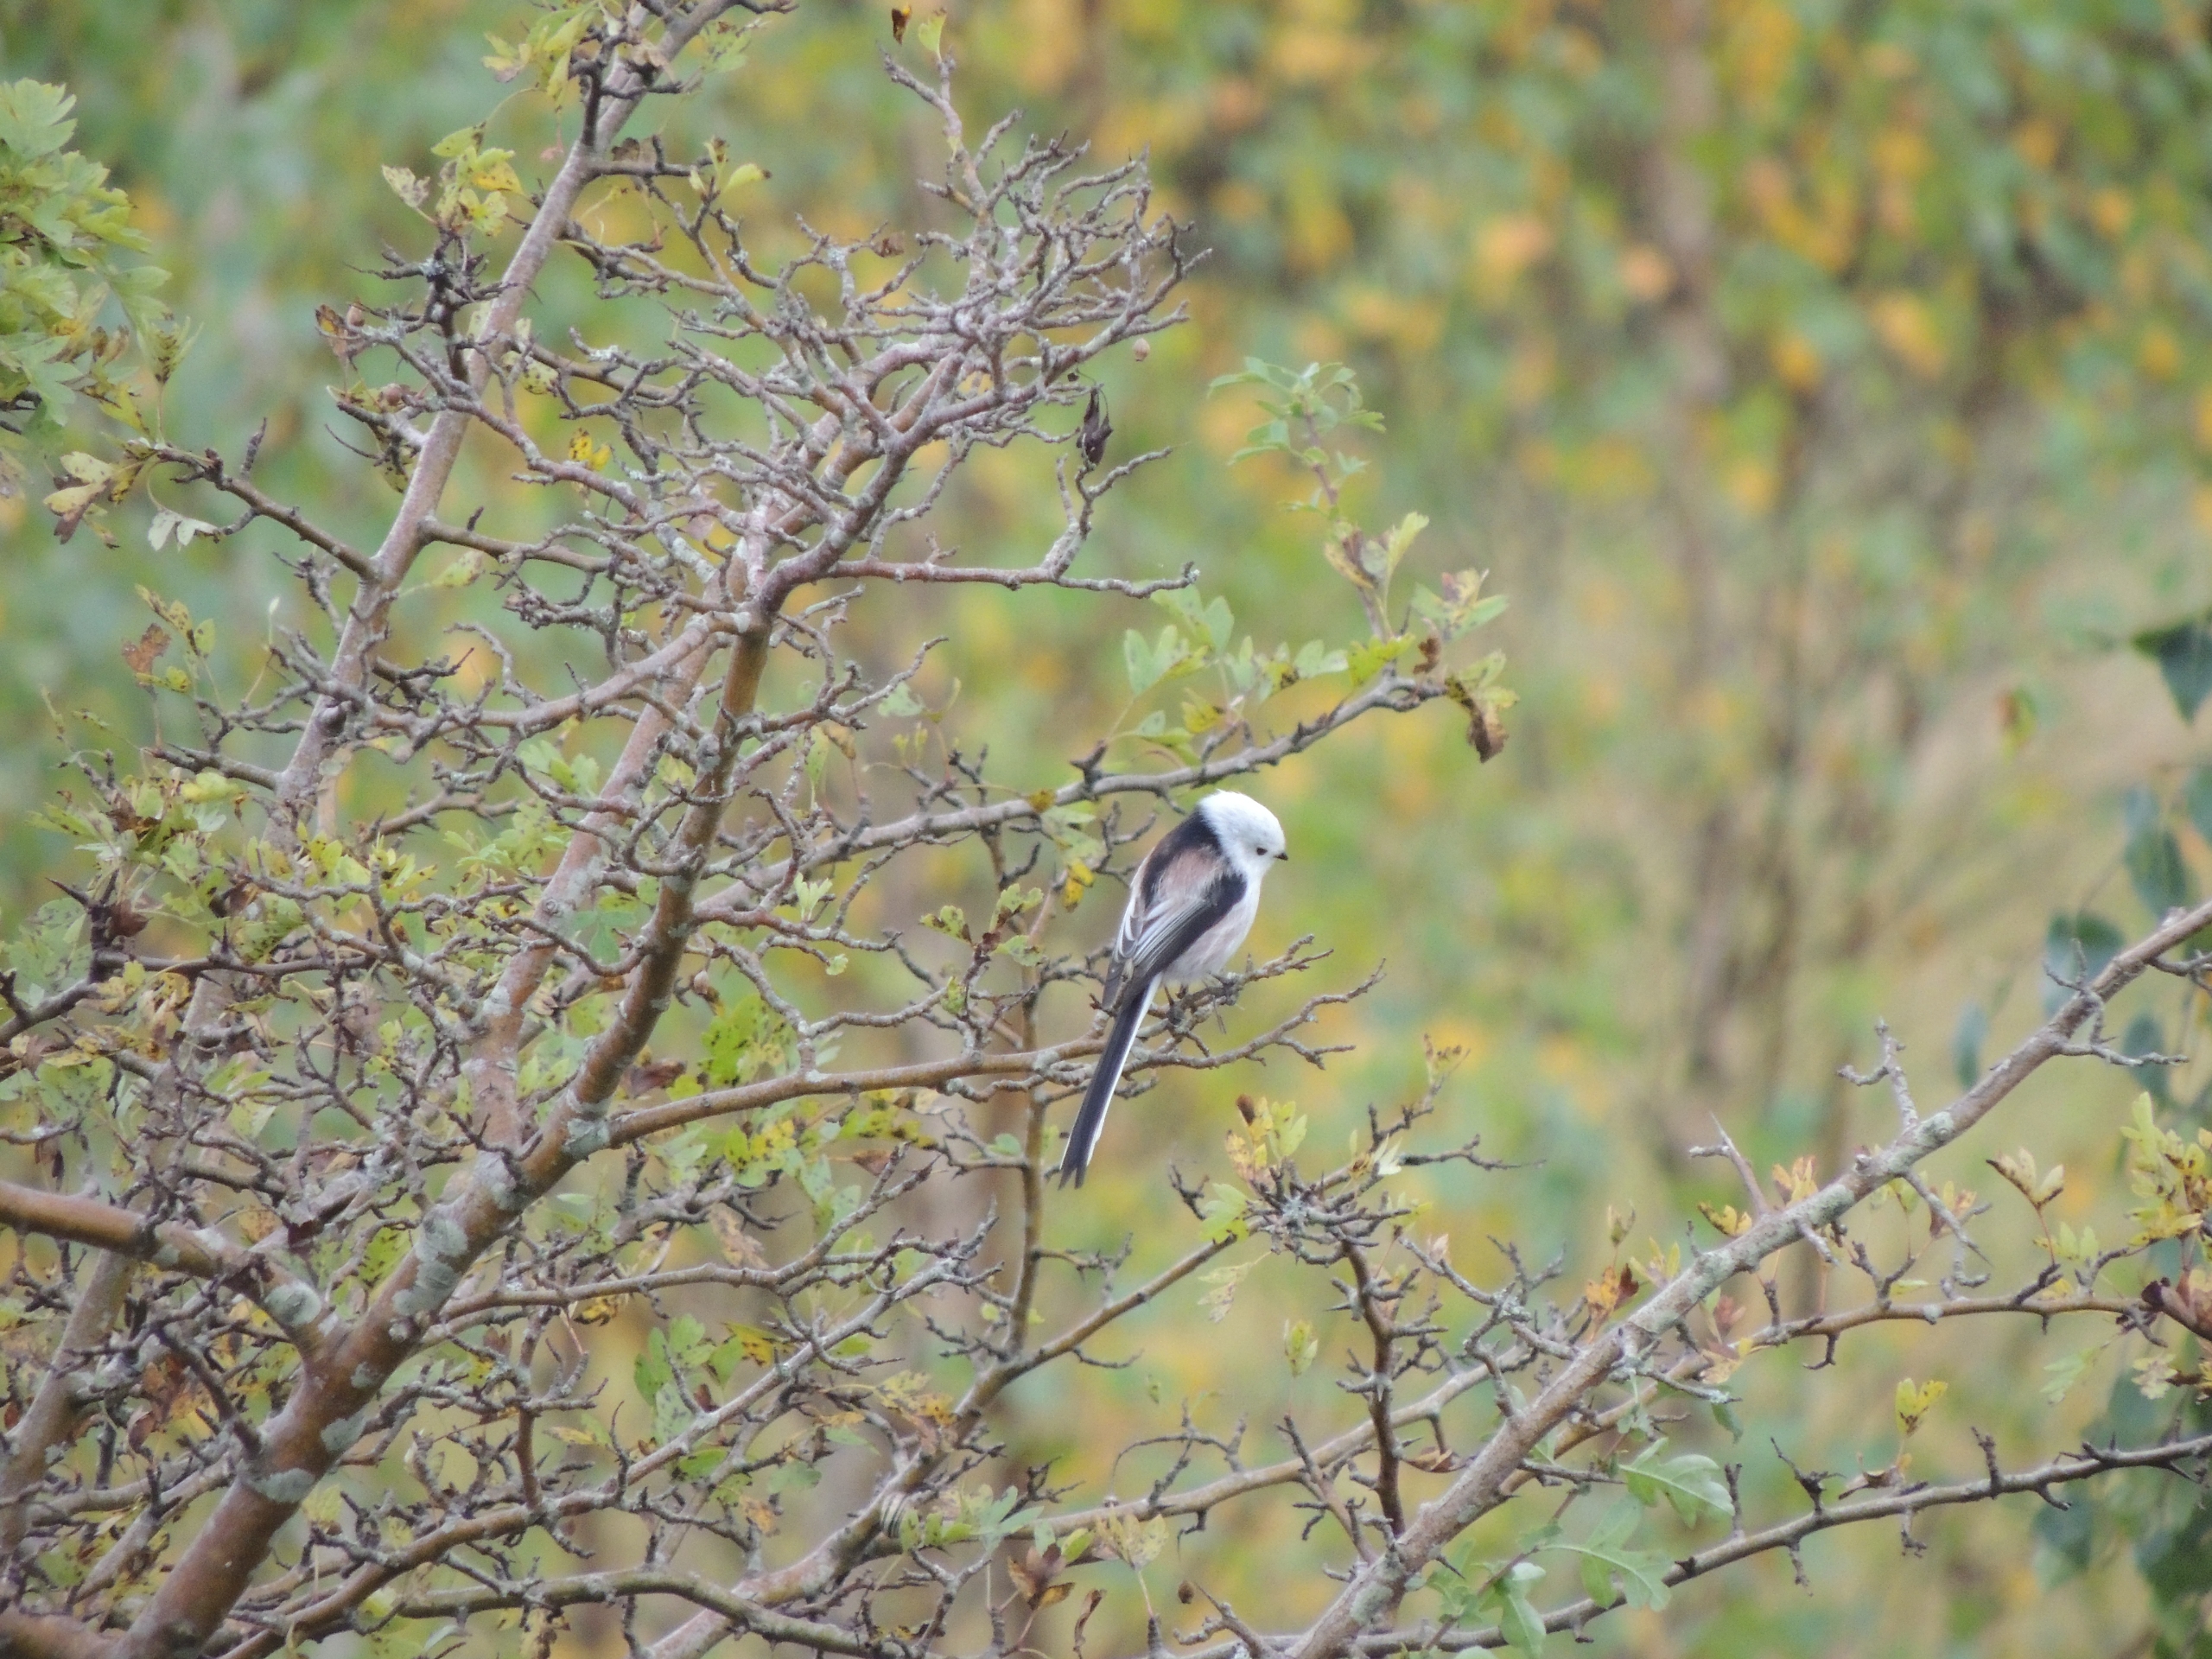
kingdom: Animalia
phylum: Chordata
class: Aves
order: Passeriformes
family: Aegithalidae
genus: Aegithalos
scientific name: Aegithalos caudatus
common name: Halemejse
